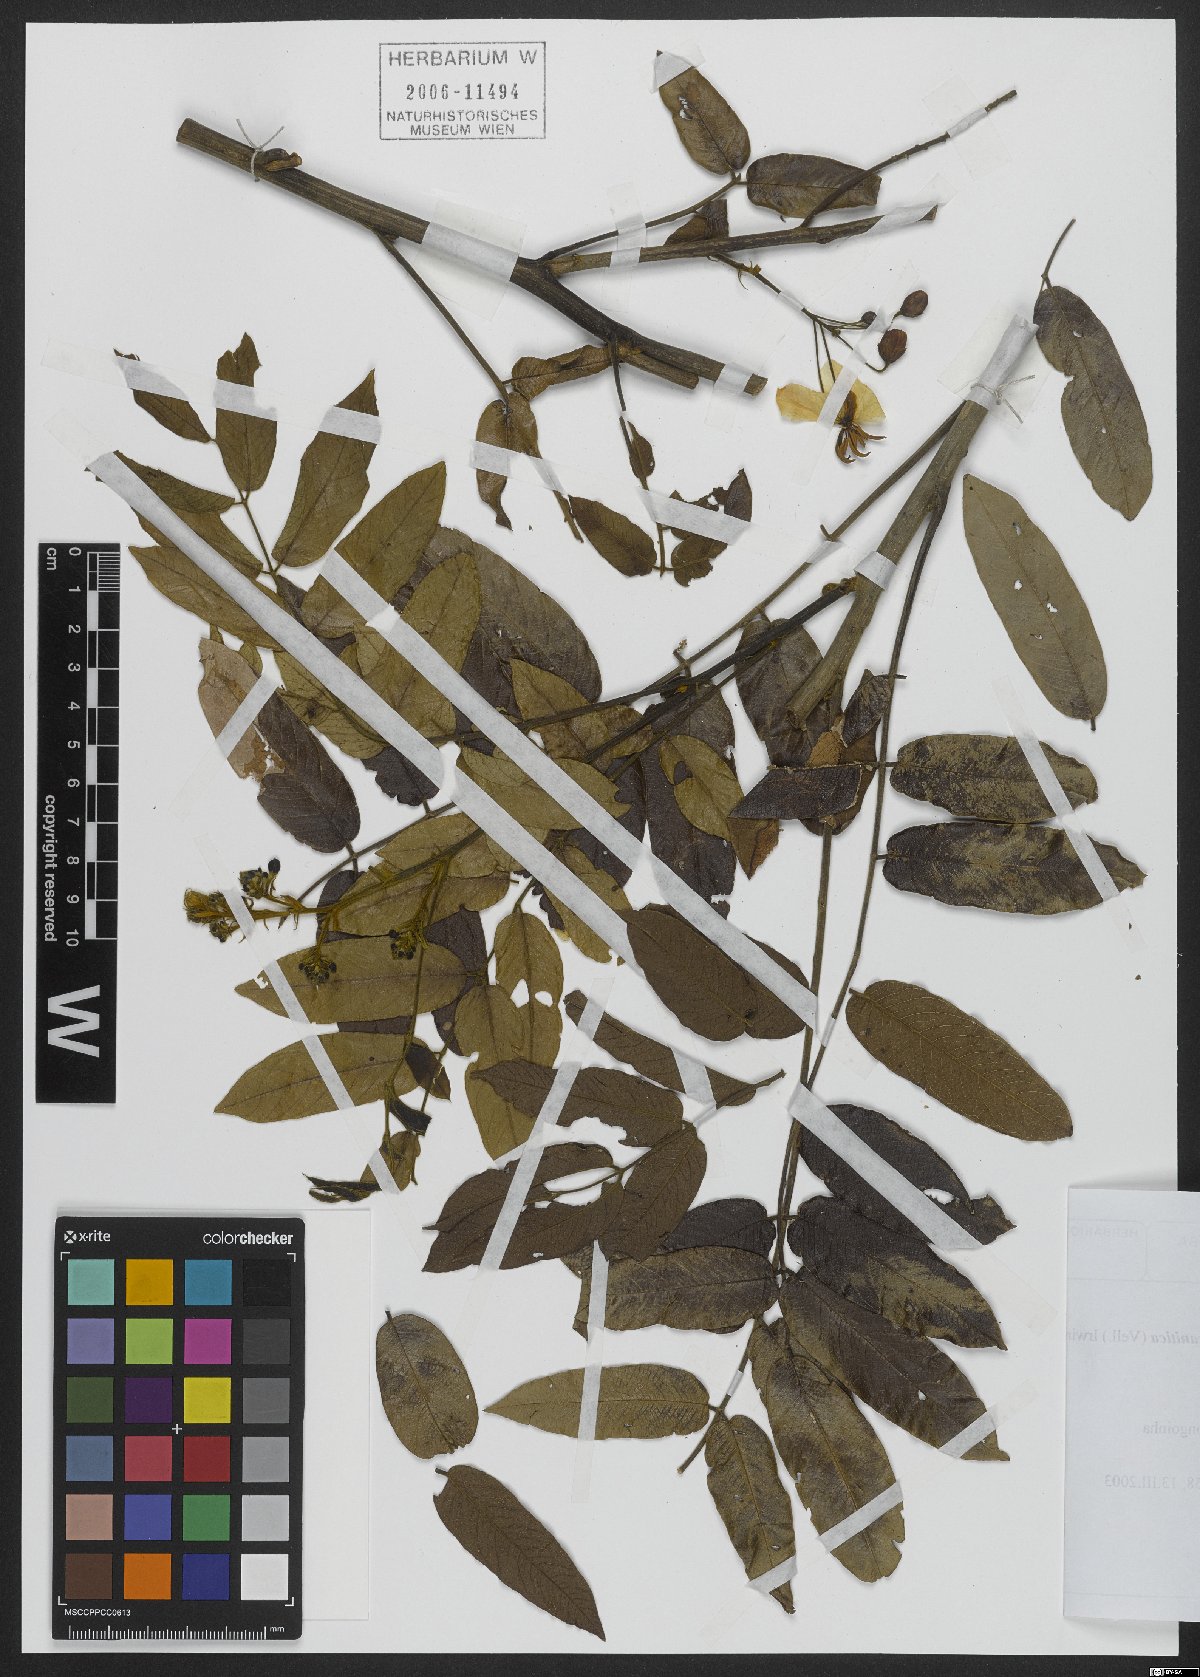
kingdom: Plantae
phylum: Tracheophyta
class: Magnoliopsida
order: Fabales
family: Fabaceae
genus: Senna
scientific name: Senna silvestris
